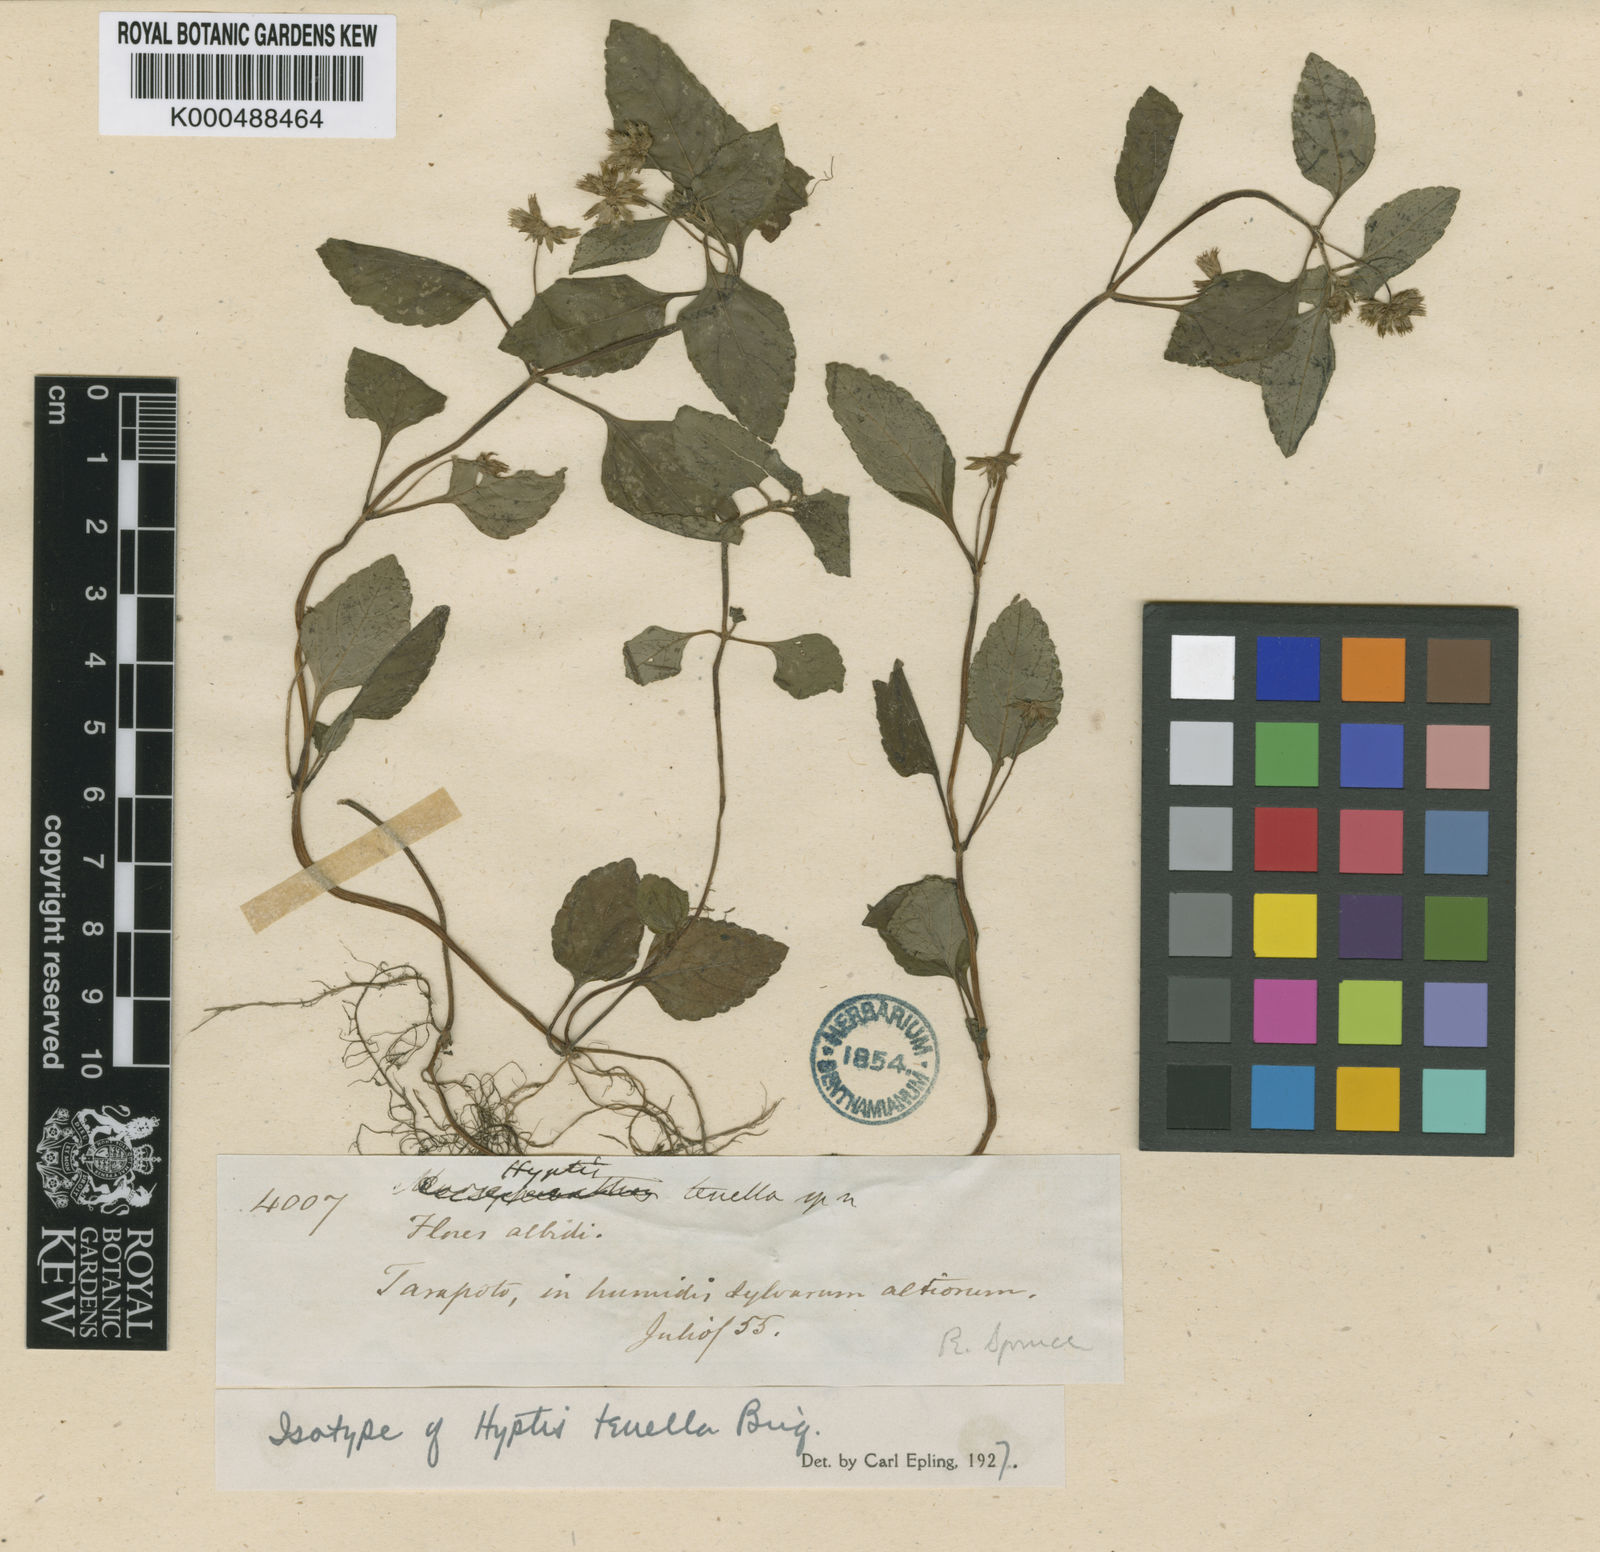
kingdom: Plantae
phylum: Tracheophyta
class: Magnoliopsida
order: Lamiales
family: Lamiaceae
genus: Hyptis
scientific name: Hyptis atrorubens
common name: Lanmant
